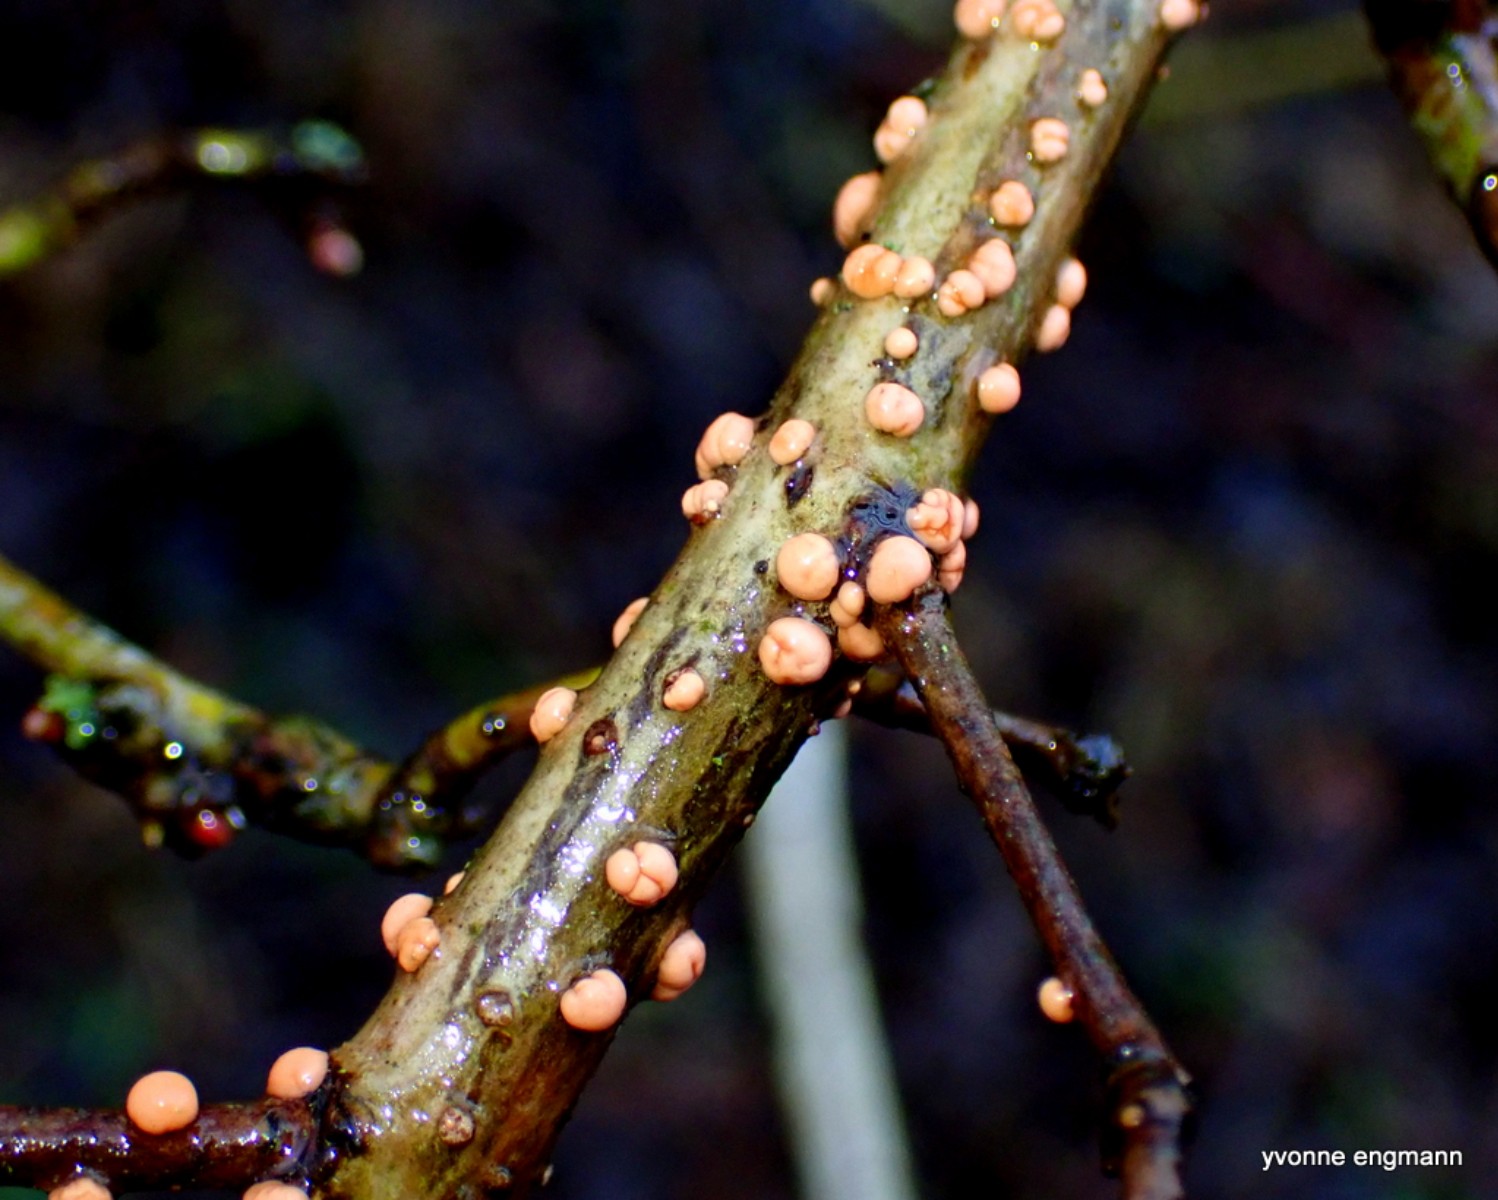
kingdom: Fungi
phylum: Ascomycota
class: Sordariomycetes
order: Hypocreales
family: Nectriaceae
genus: Nectria
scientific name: Nectria cinnabarina
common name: almindelig cinnobersvamp
